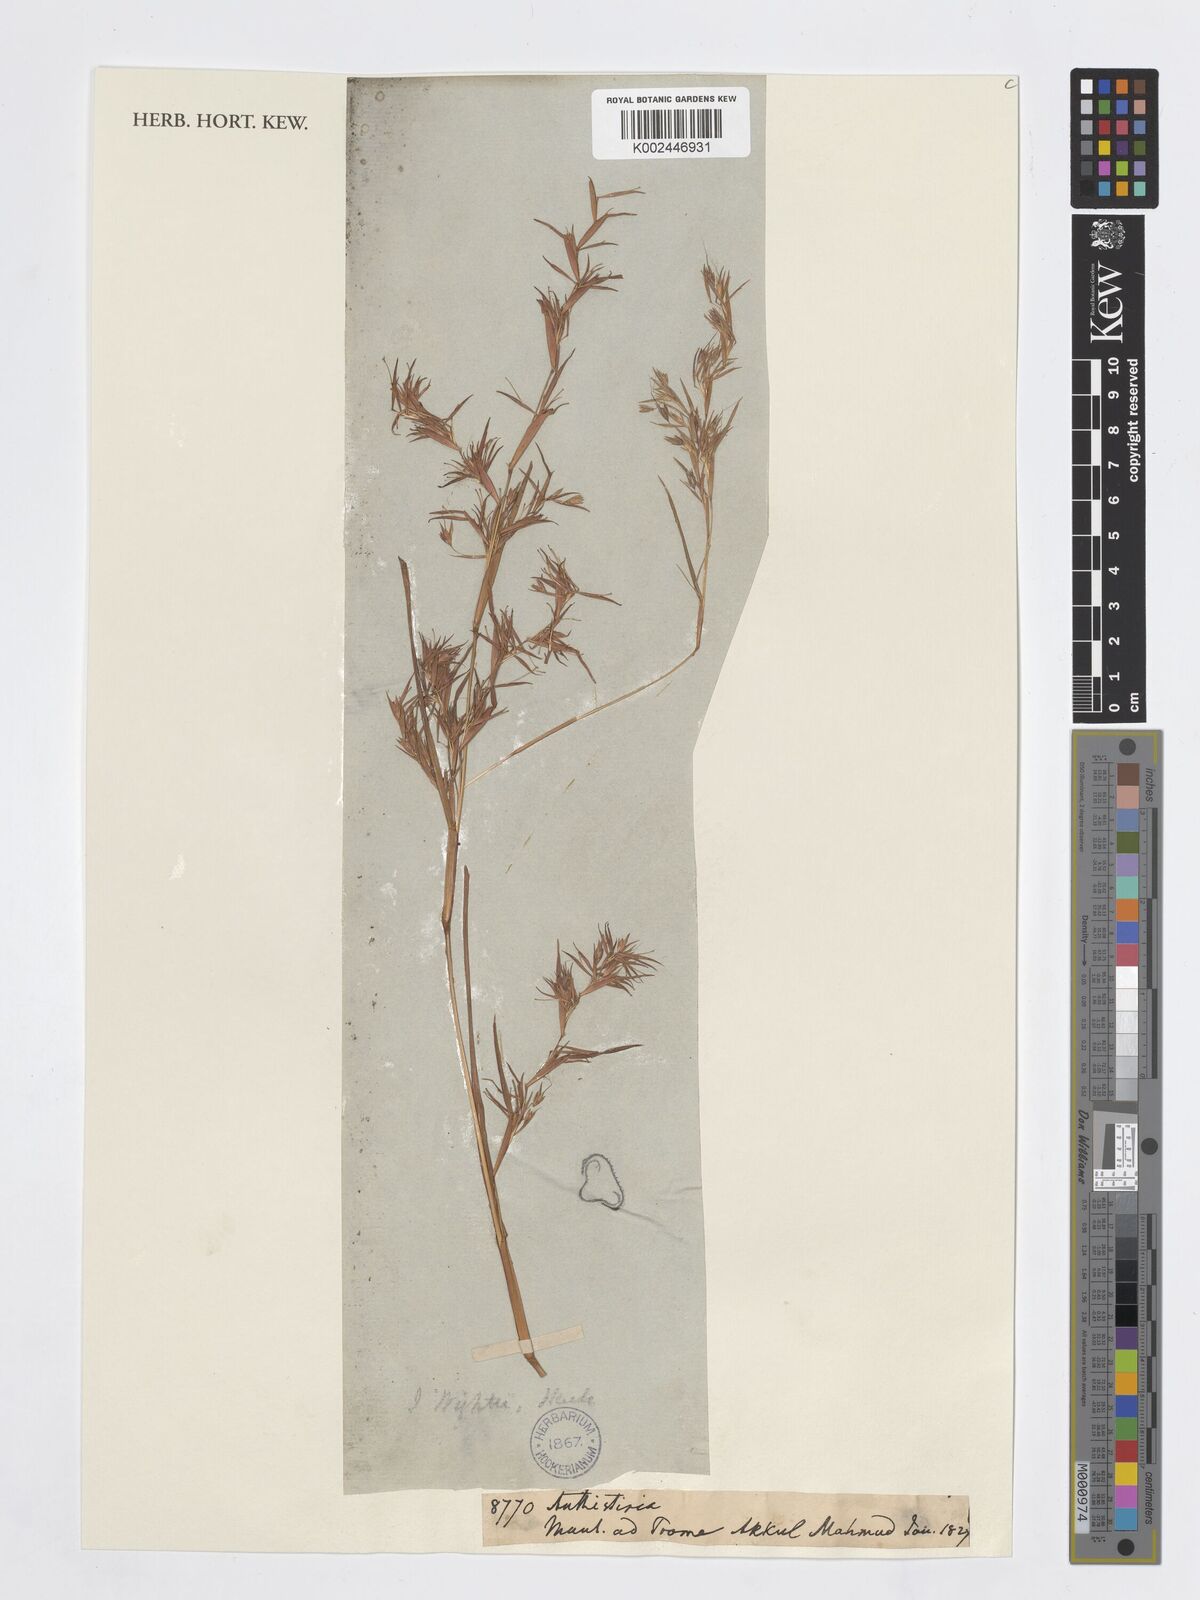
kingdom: Plantae
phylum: Tracheophyta
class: Liliopsida
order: Poales
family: Poaceae
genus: Iseilema
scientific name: Iseilema prostratum
